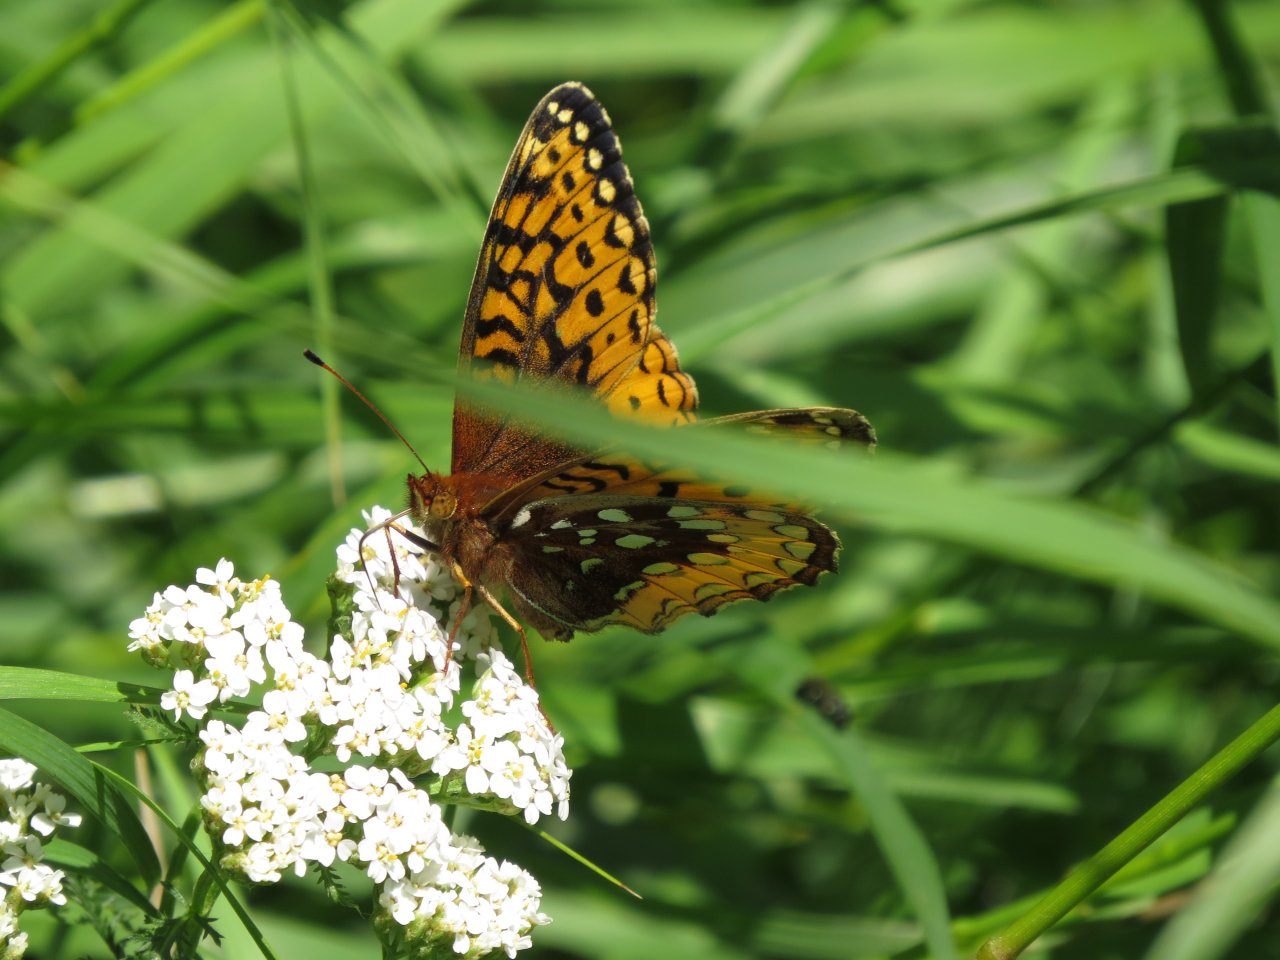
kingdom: Animalia
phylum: Arthropoda
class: Insecta
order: Lepidoptera
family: Nymphalidae
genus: Speyeria
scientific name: Speyeria cybele
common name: Great Spangled Fritillary
